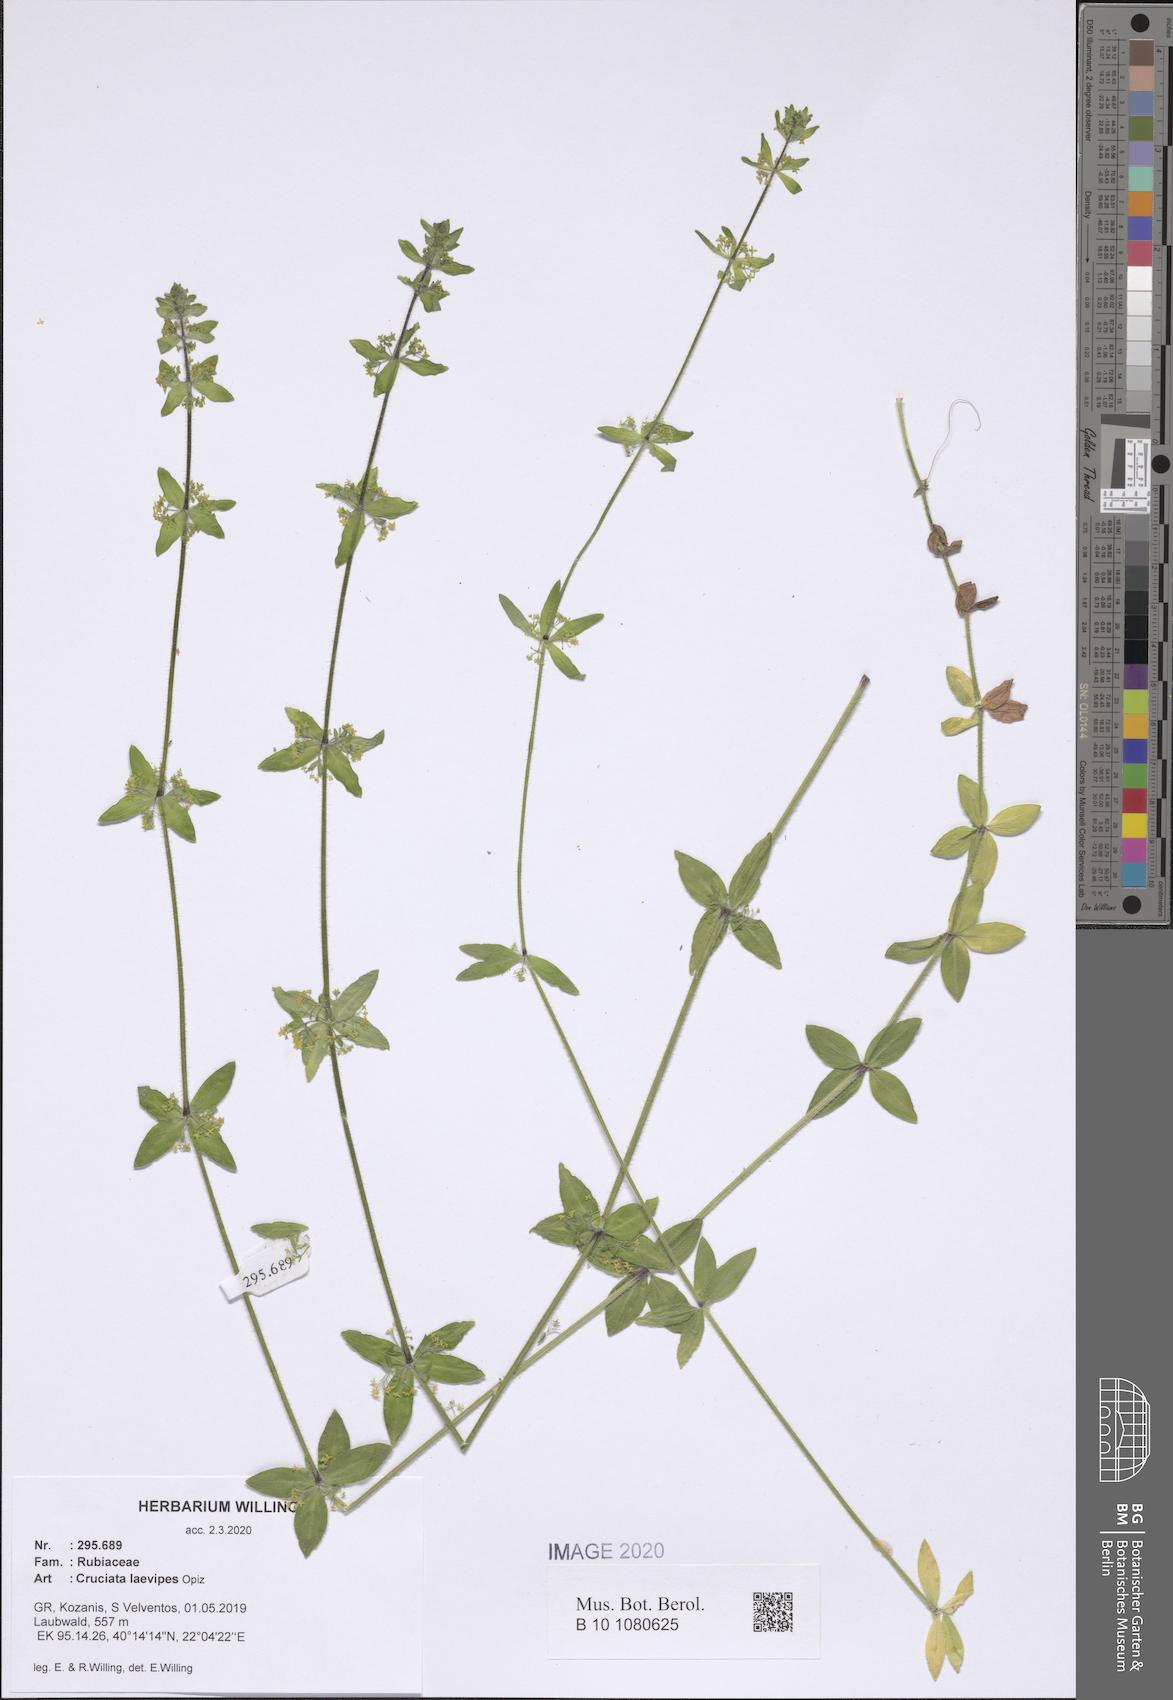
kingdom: Plantae
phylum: Tracheophyta
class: Magnoliopsida
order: Gentianales
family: Rubiaceae
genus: Cruciata
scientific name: Cruciata laevipes
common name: Crosswort
